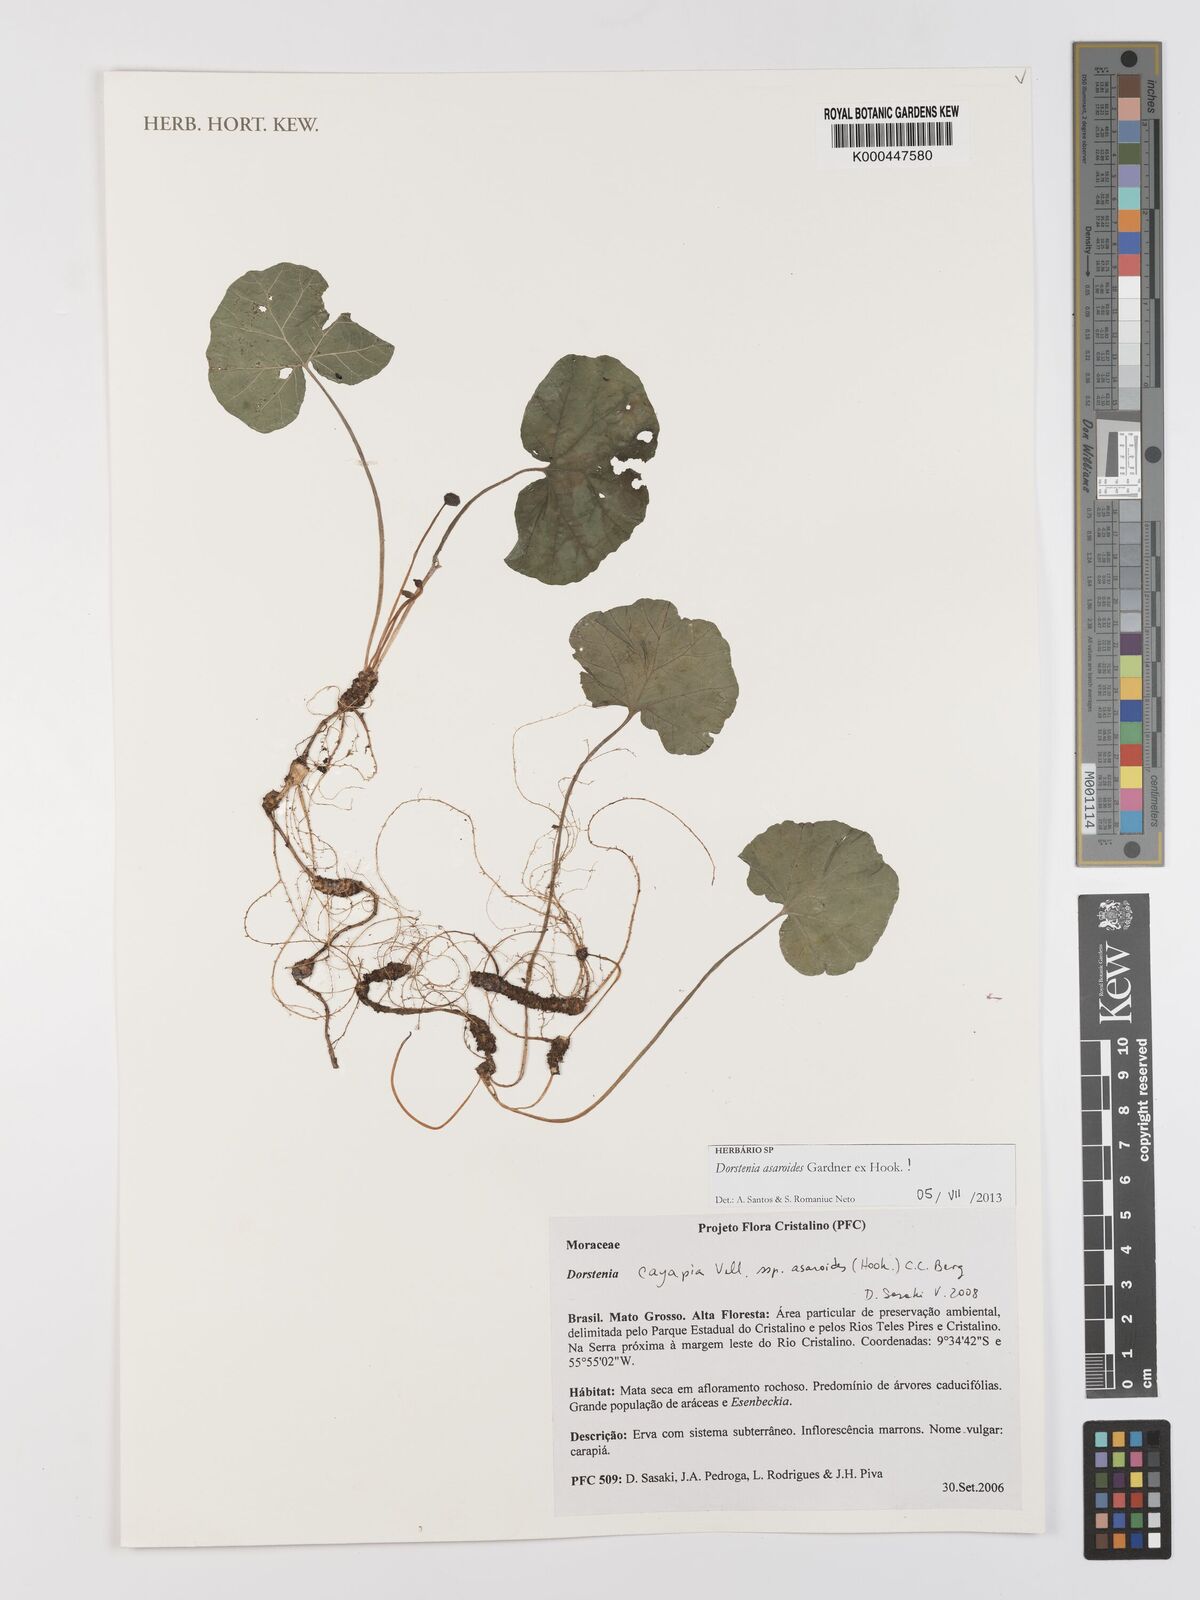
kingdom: Plantae
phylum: Tracheophyta
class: Magnoliopsida
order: Rosales
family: Moraceae
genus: Dorstenia
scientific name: Dorstenia cayapia
